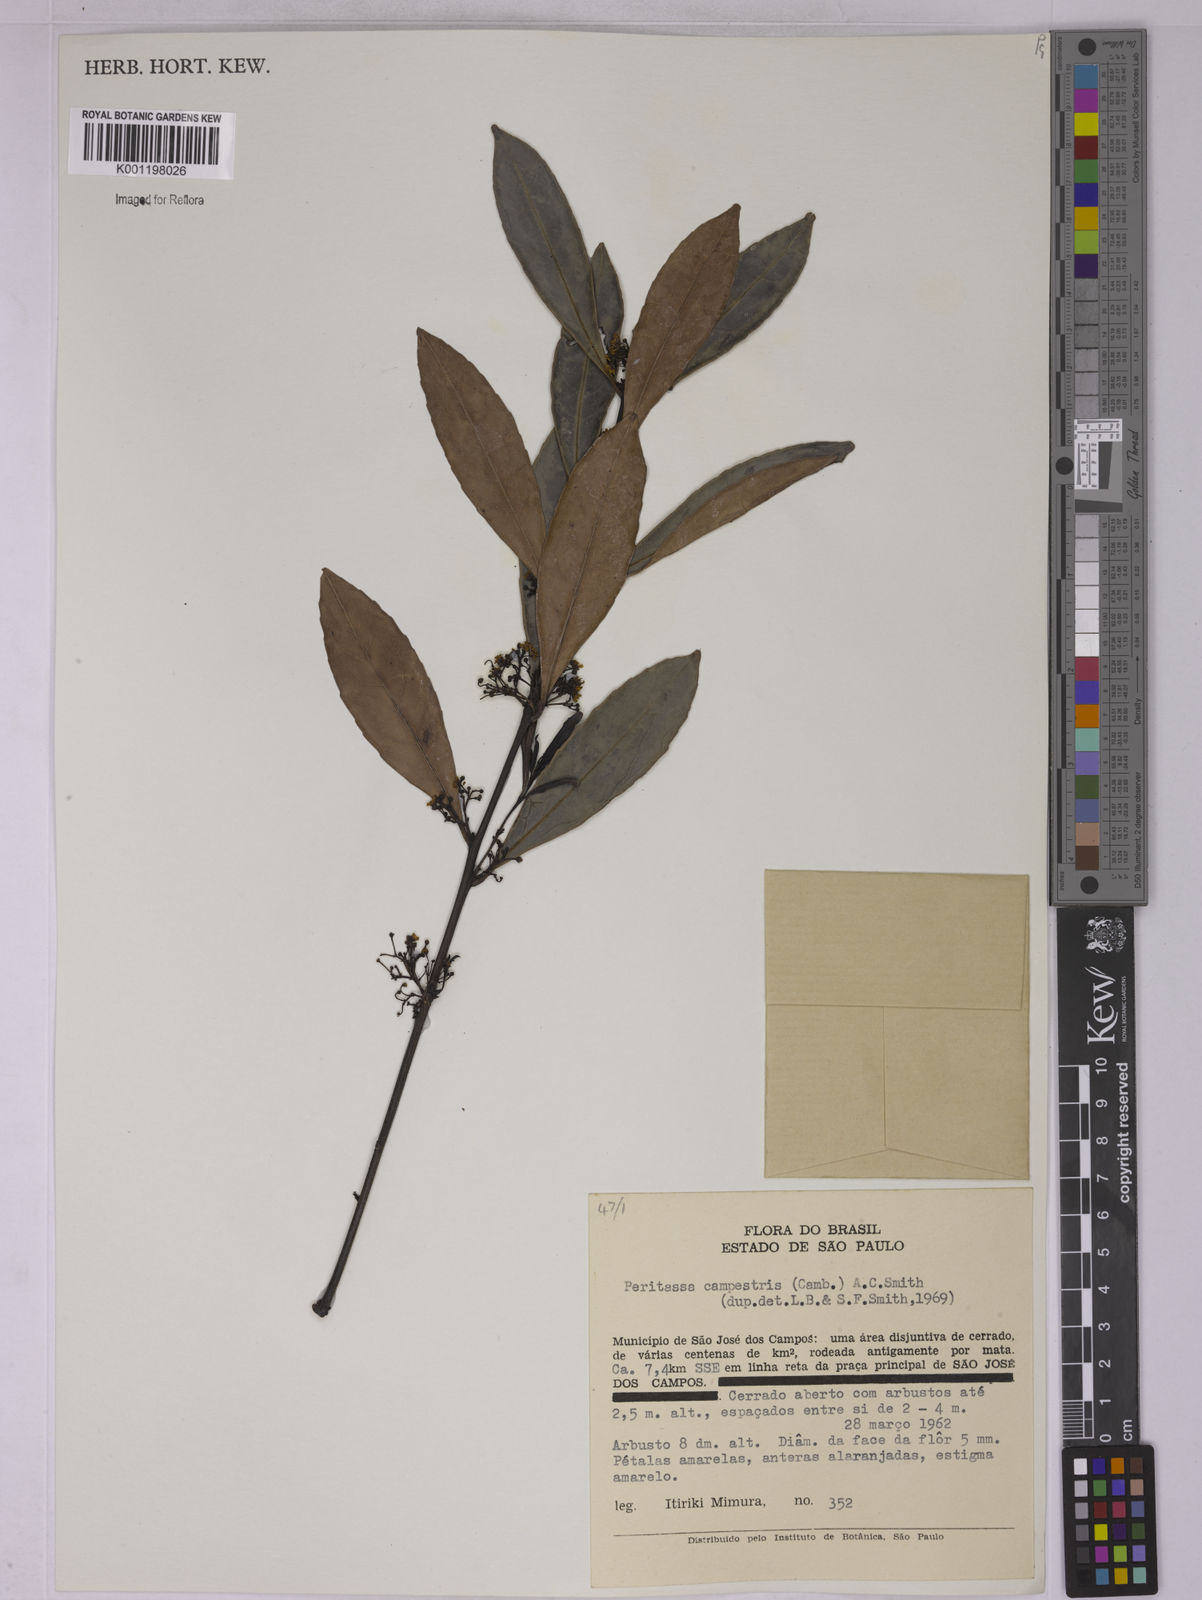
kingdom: Plantae
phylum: Tracheophyta
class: Magnoliopsida
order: Celastrales
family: Celastraceae
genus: Peritassa
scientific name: Peritassa campestris
